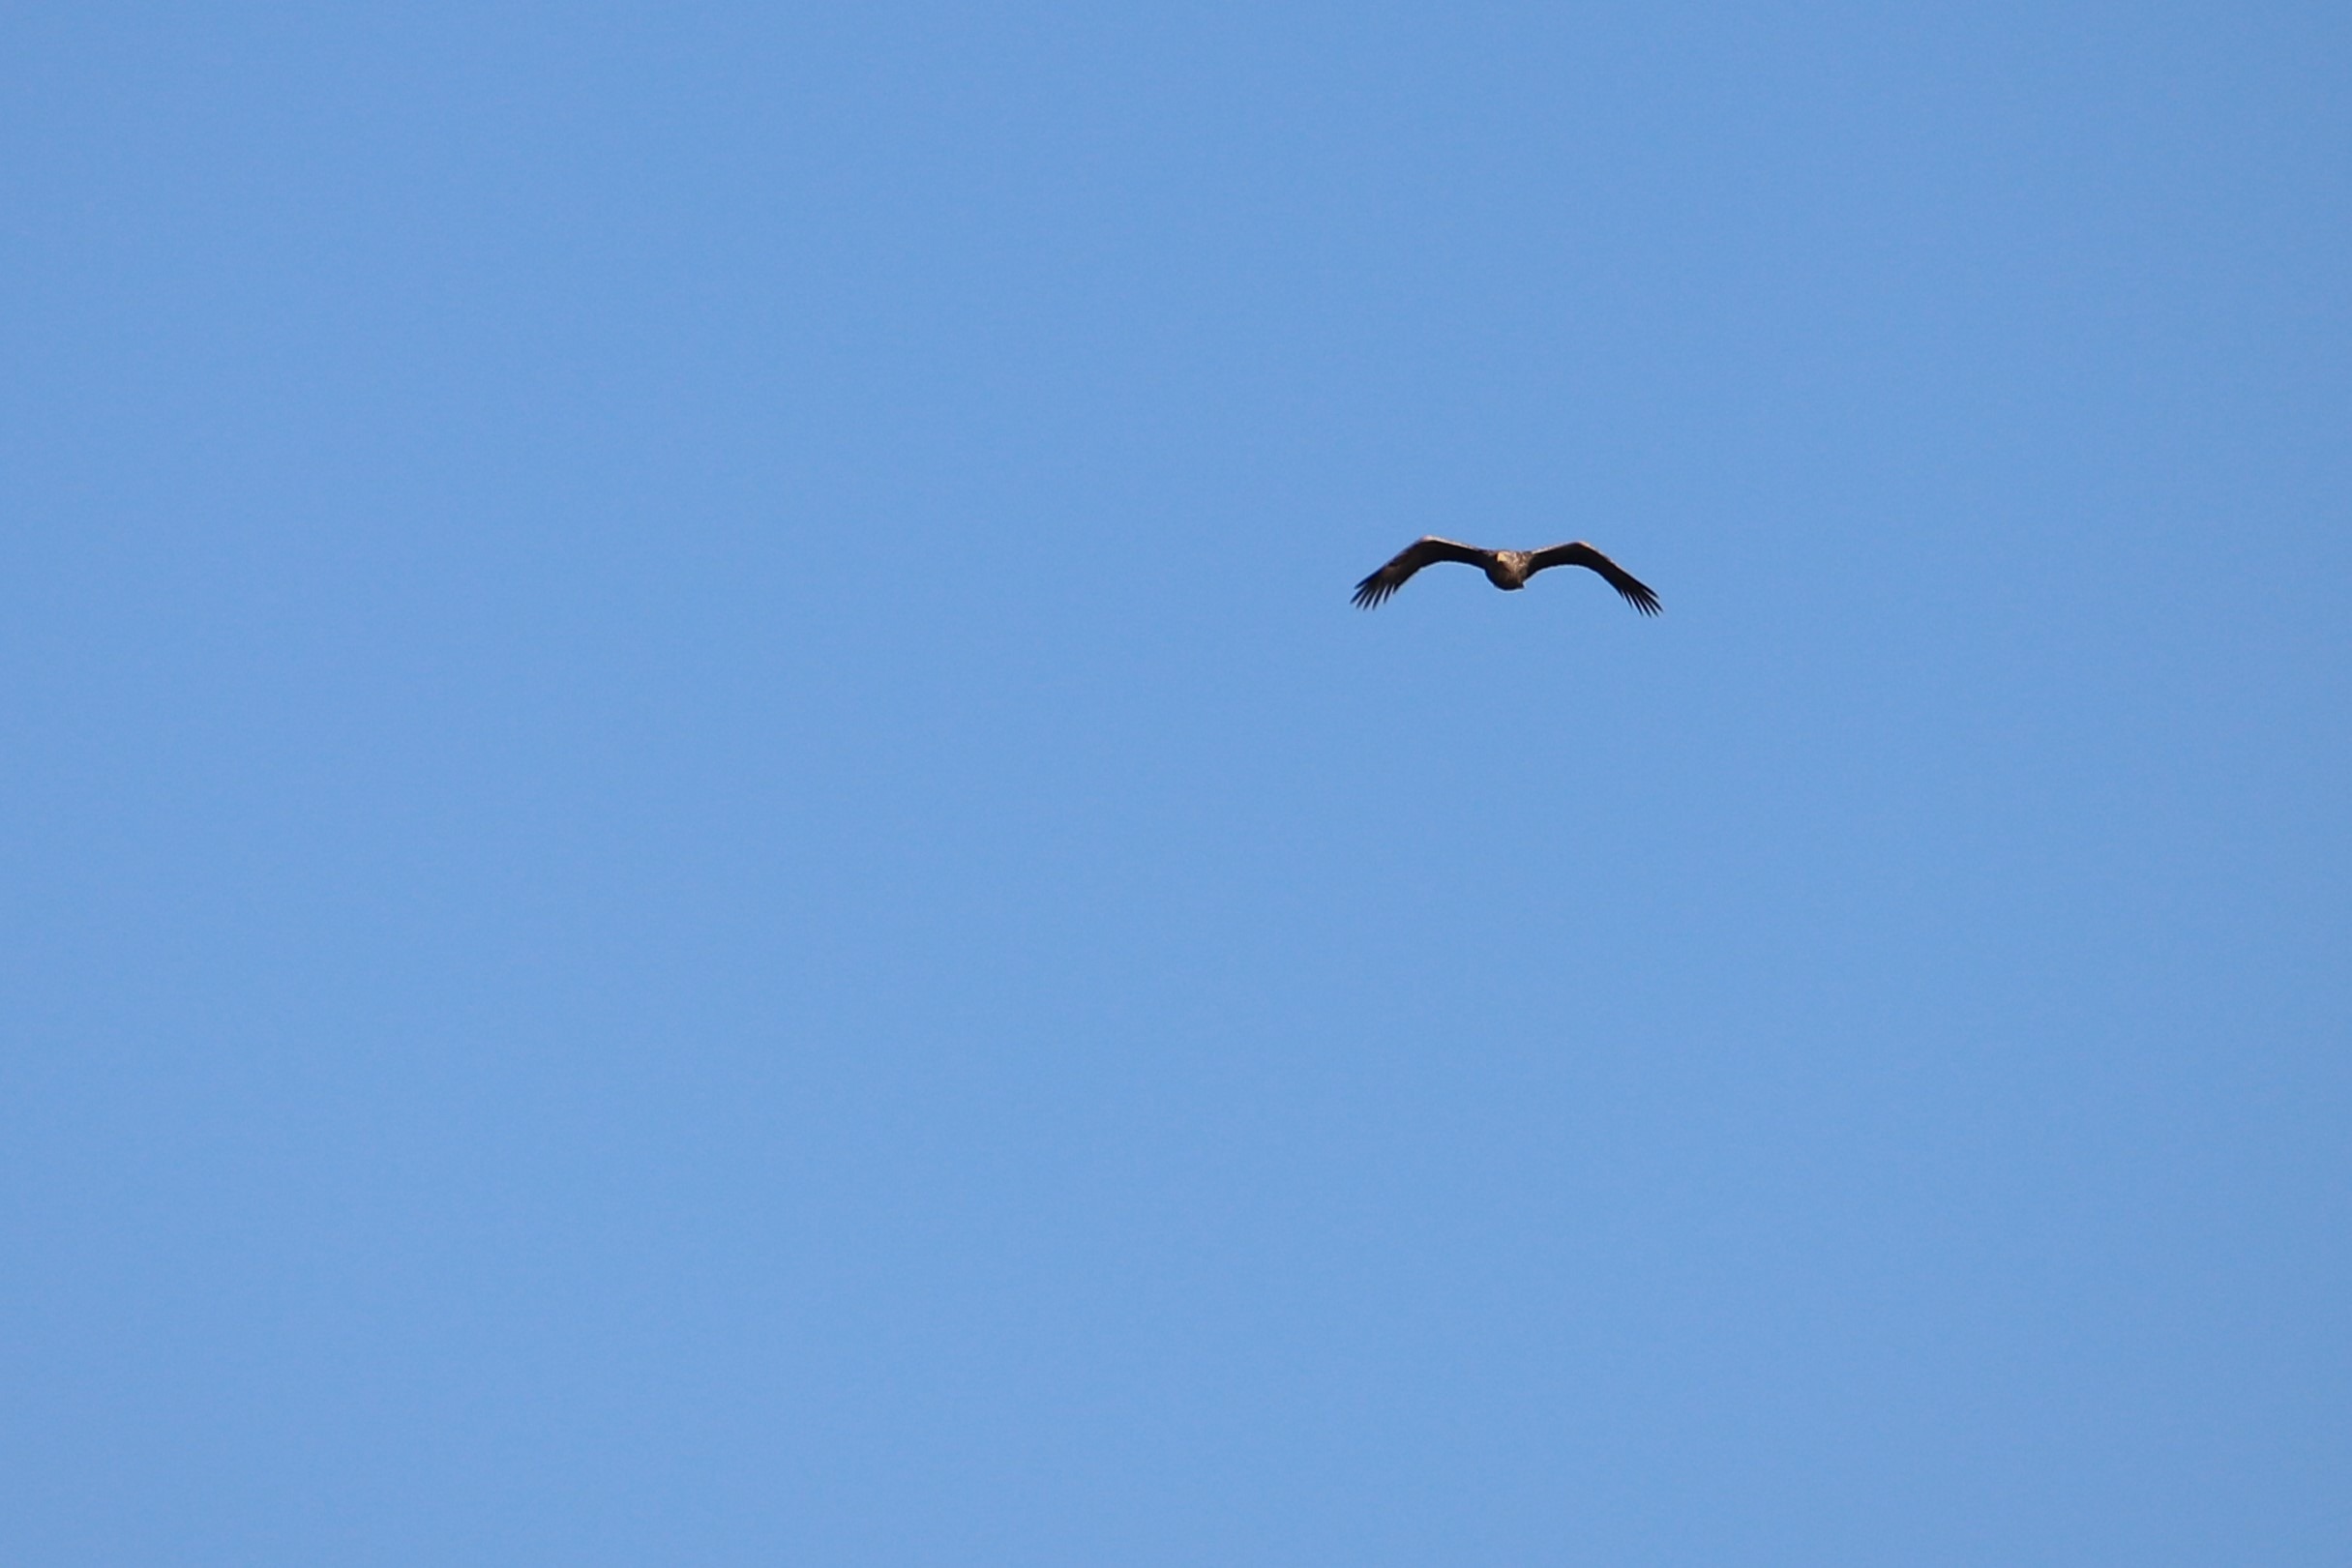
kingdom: Animalia
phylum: Chordata
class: Aves
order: Accipitriformes
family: Accipitridae
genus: Haliaeetus
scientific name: Haliaeetus albicilla
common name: Havørn
